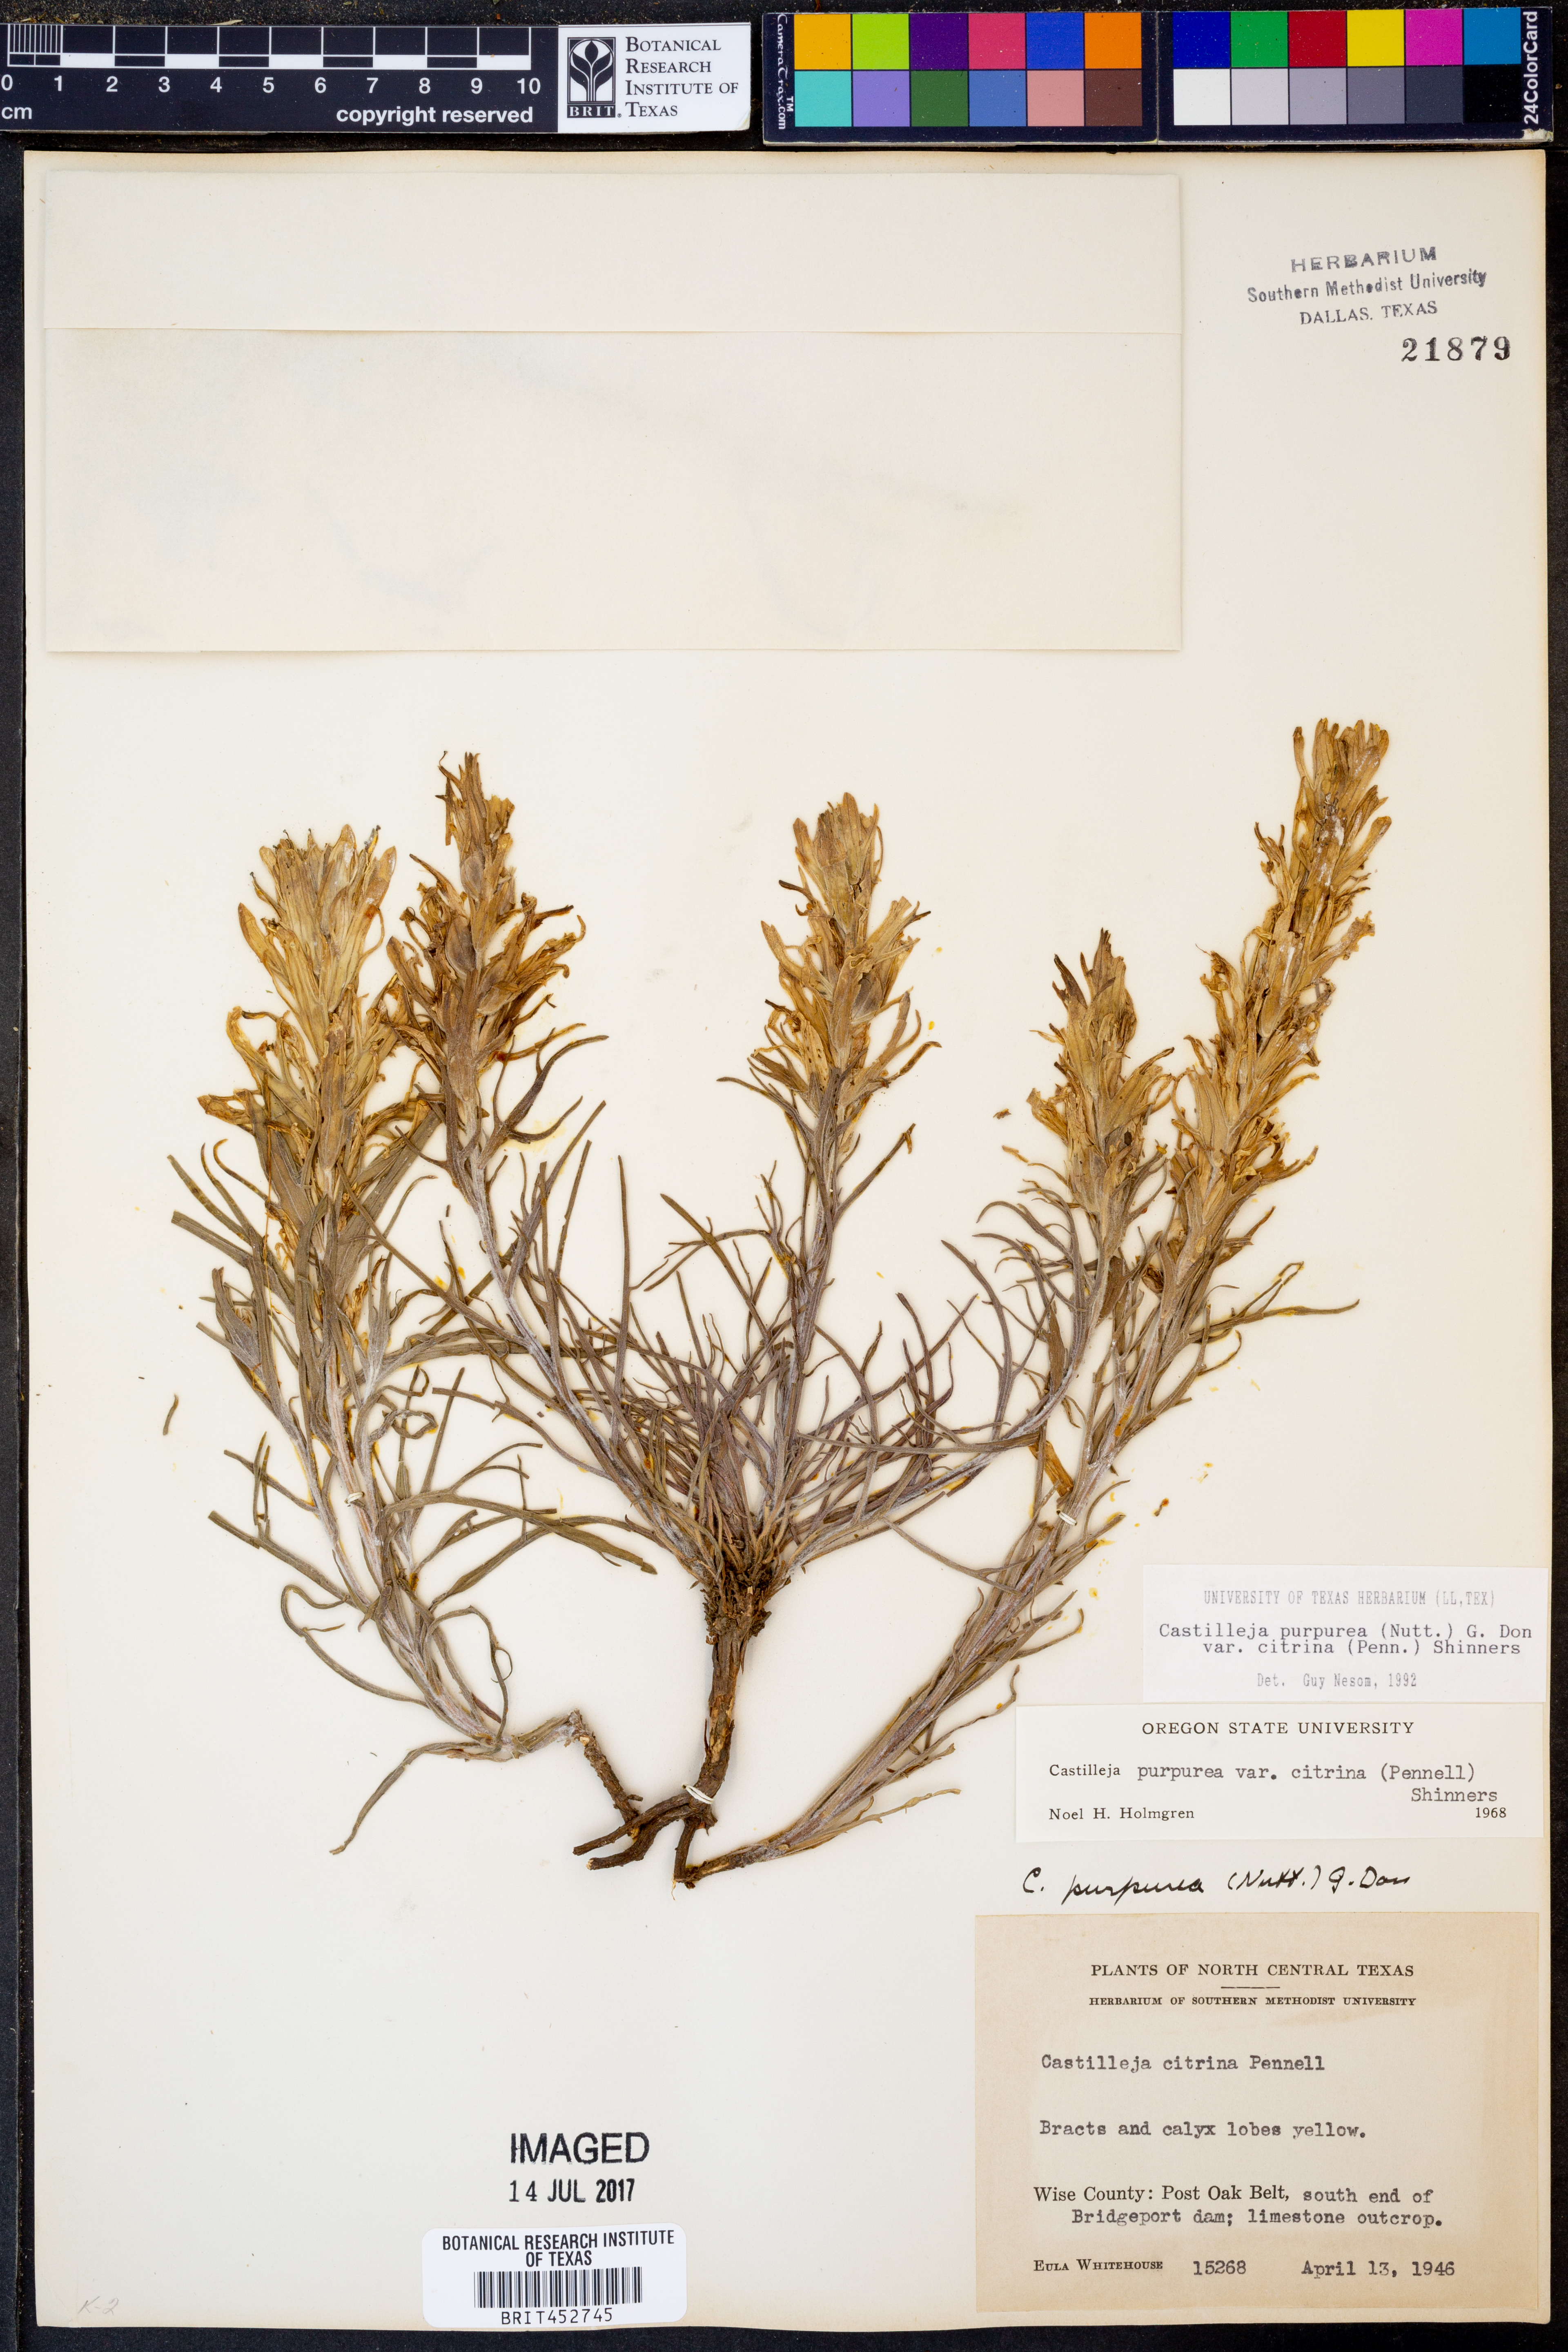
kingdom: Plantae
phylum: Tracheophyta
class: Magnoliopsida
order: Lamiales
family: Orobanchaceae
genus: Castilleja
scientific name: Castilleja citrina
